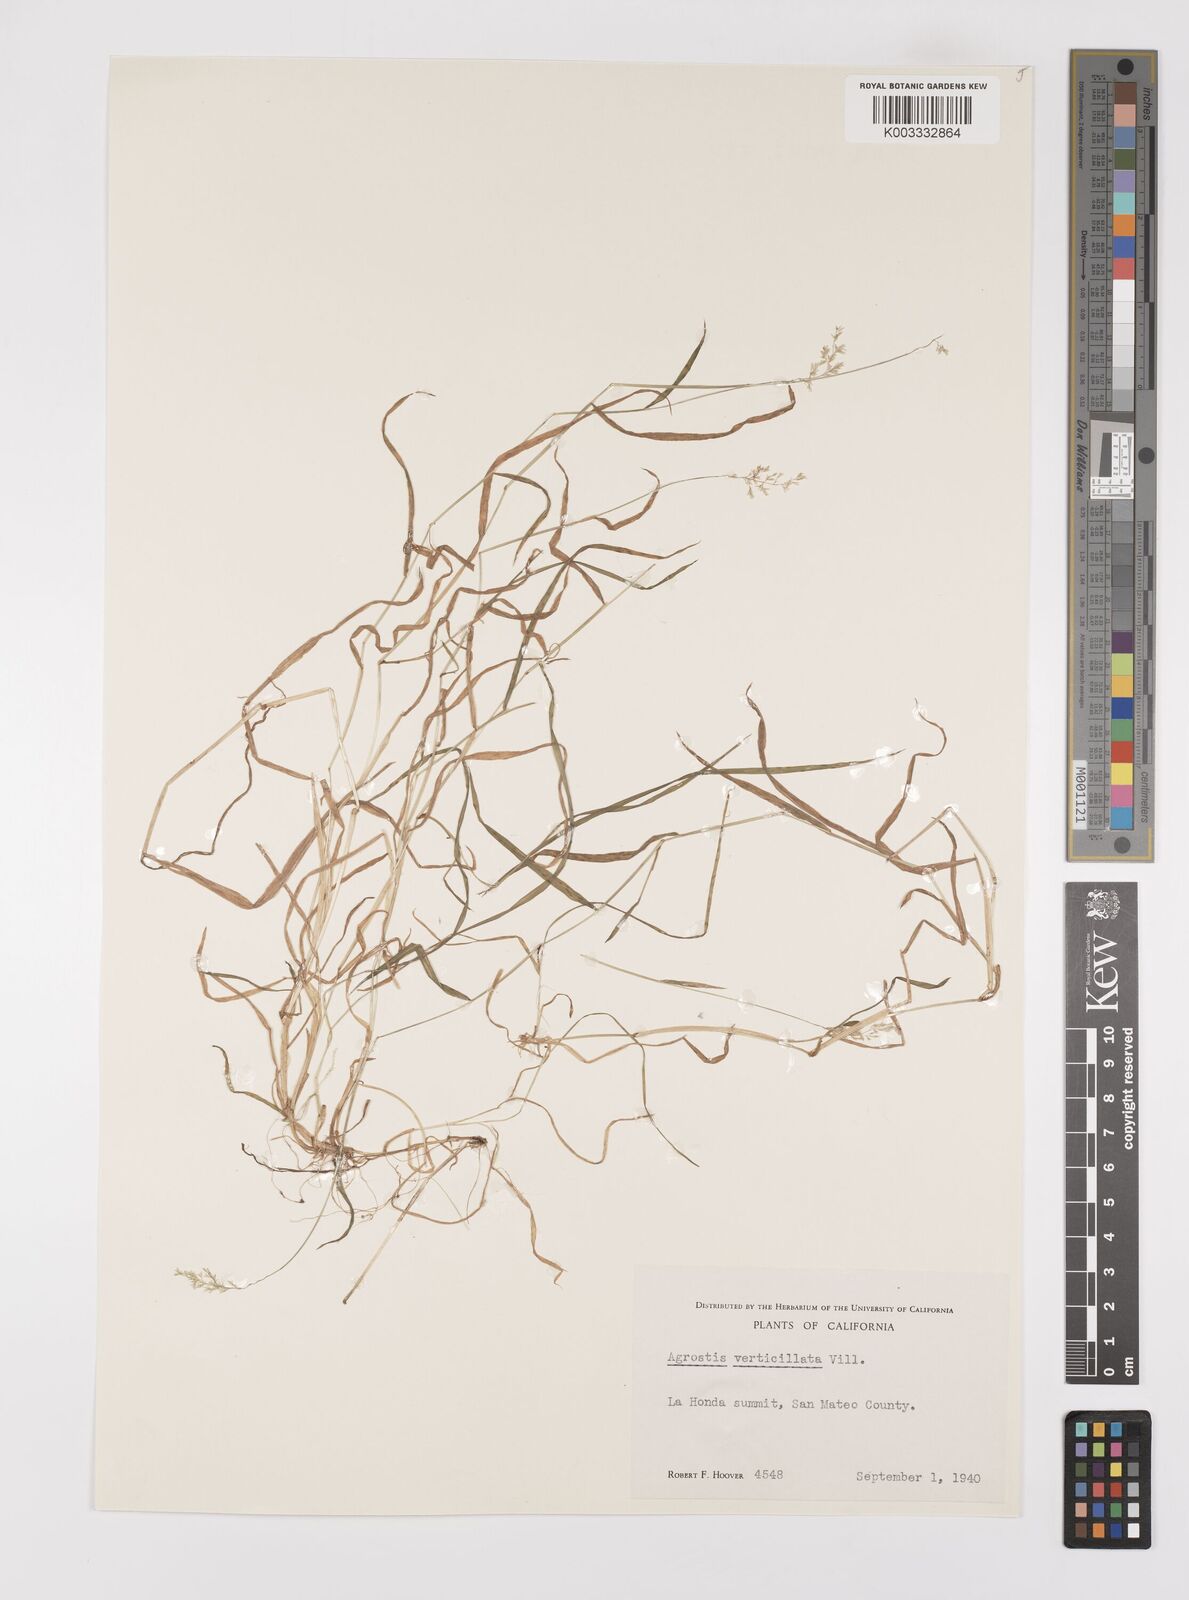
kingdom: Plantae
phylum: Tracheophyta
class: Liliopsida
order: Poales
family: Poaceae
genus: Polypogon
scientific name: Polypogon viridis
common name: Water bent
